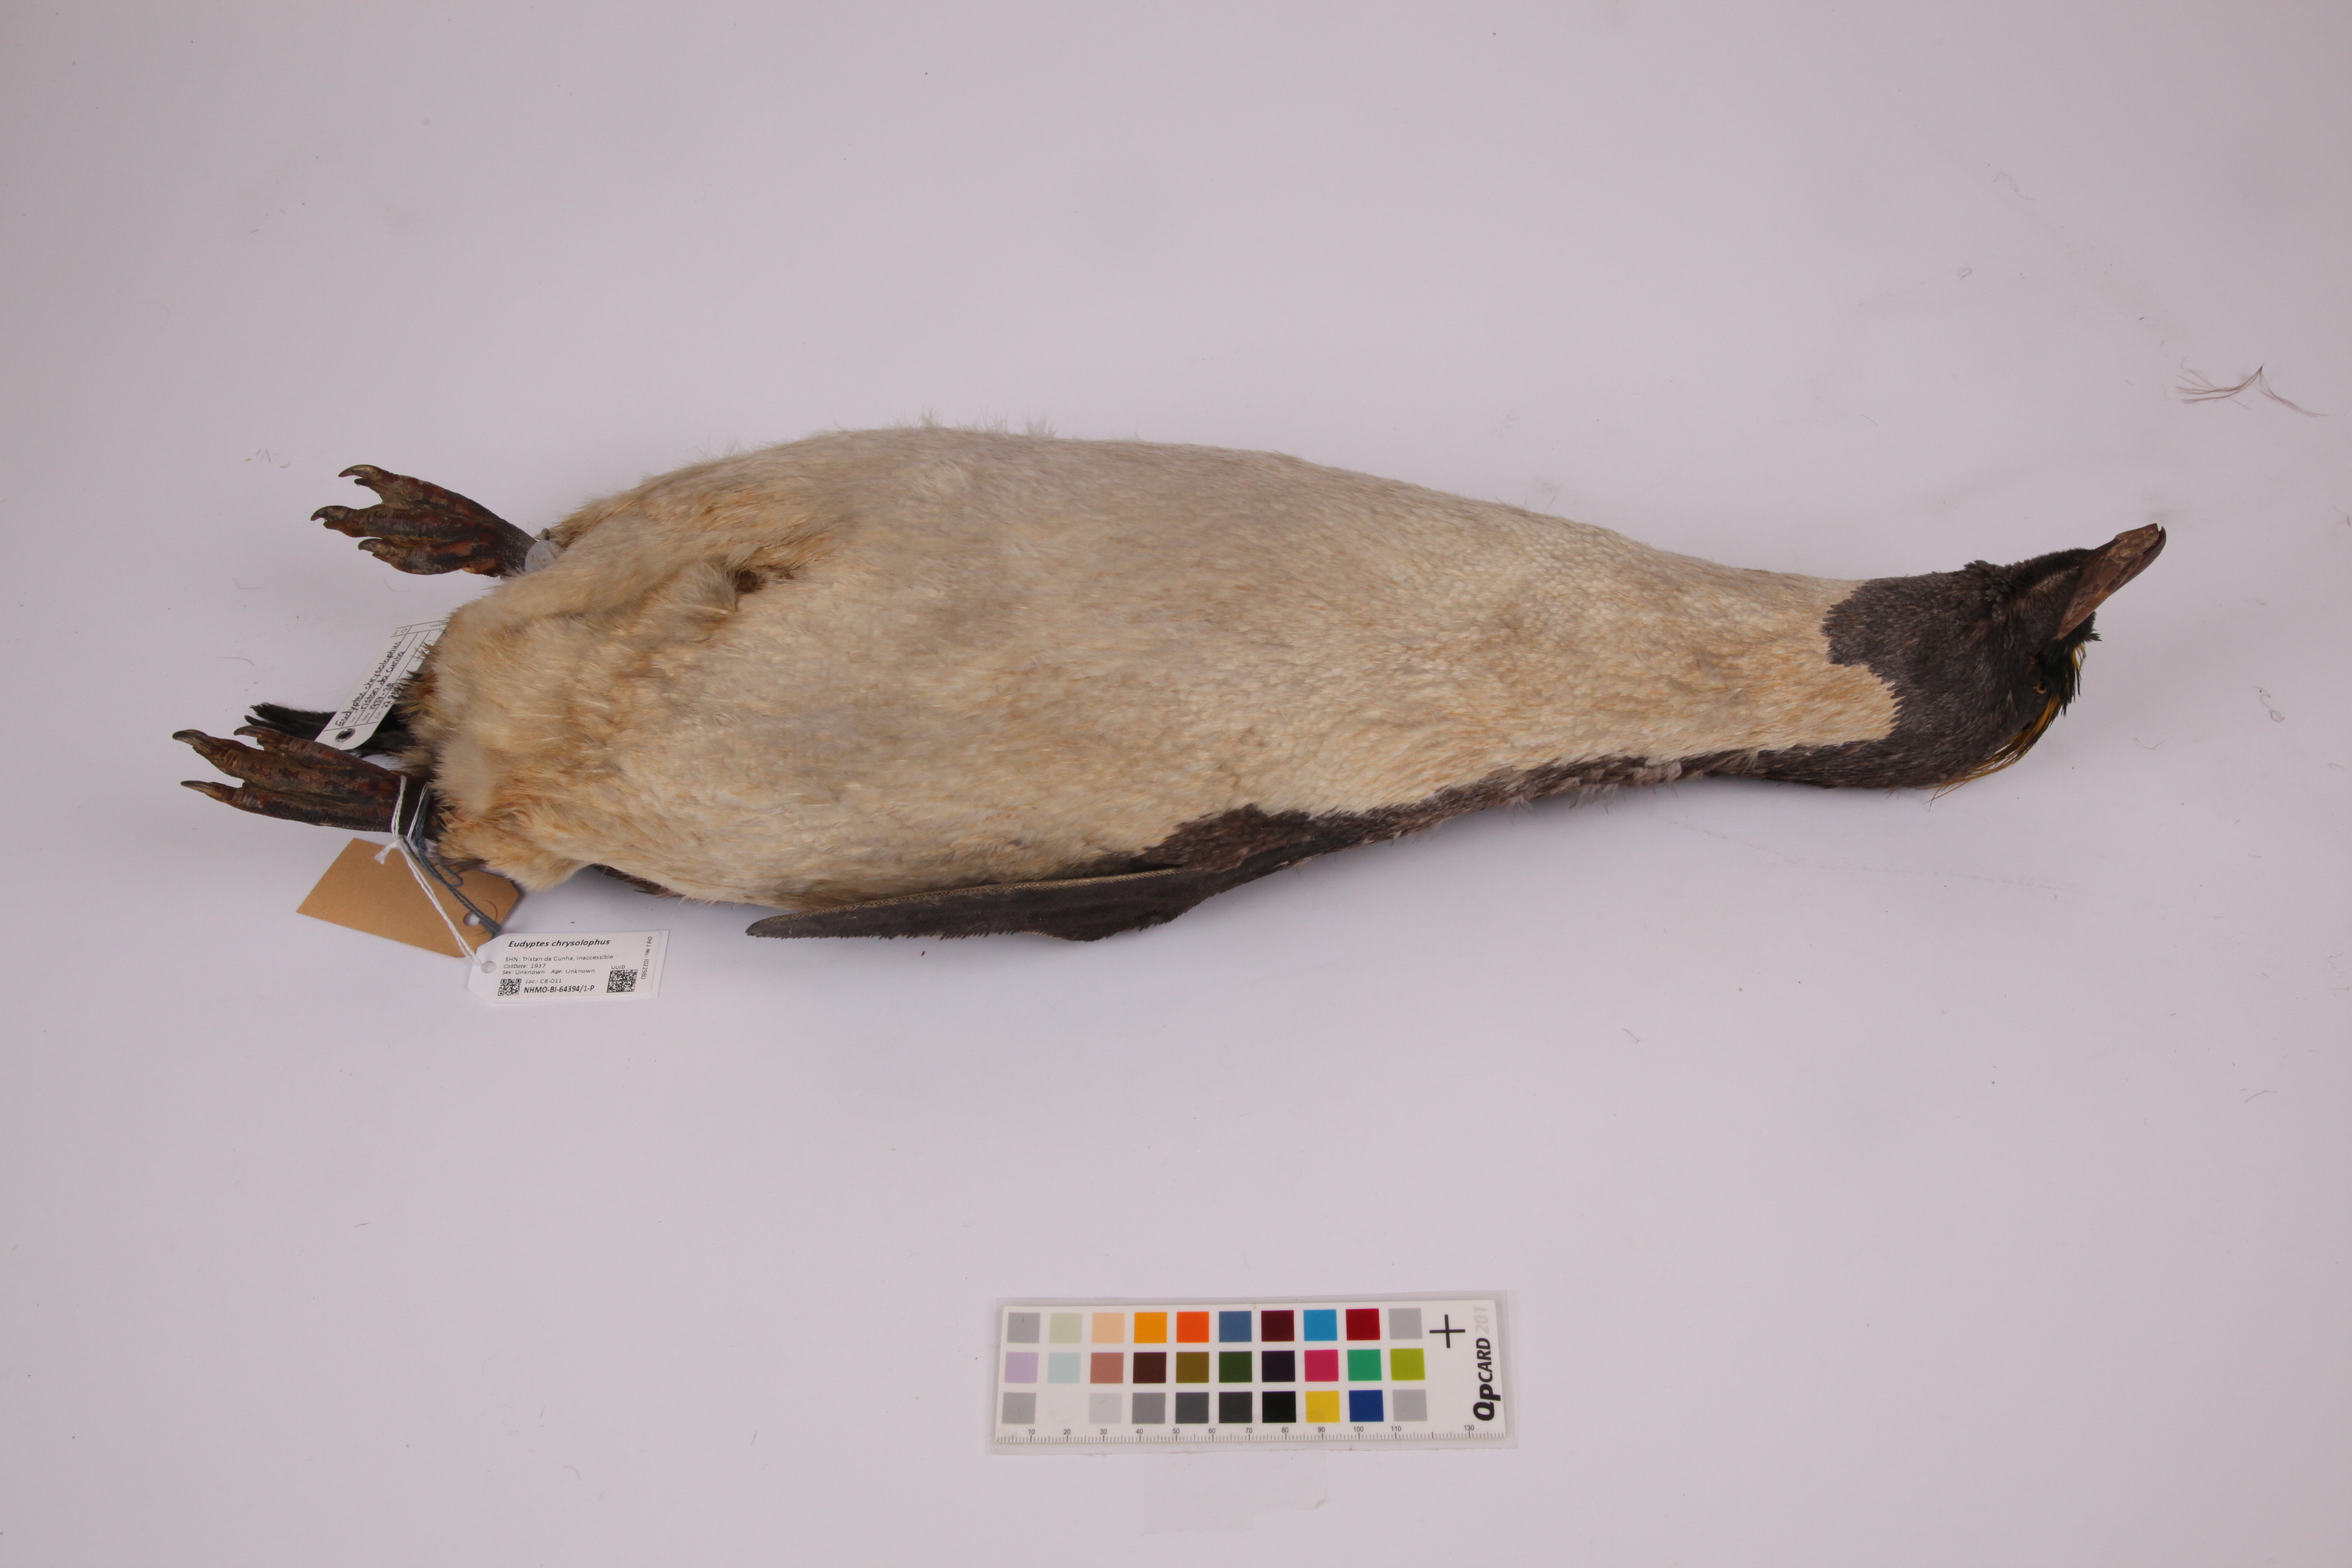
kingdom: Animalia
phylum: Chordata
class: Aves
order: Sphenisciformes
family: Spheniscidae
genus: Eudyptes
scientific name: Eudyptes chrysolophus
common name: Macaroni penguin
